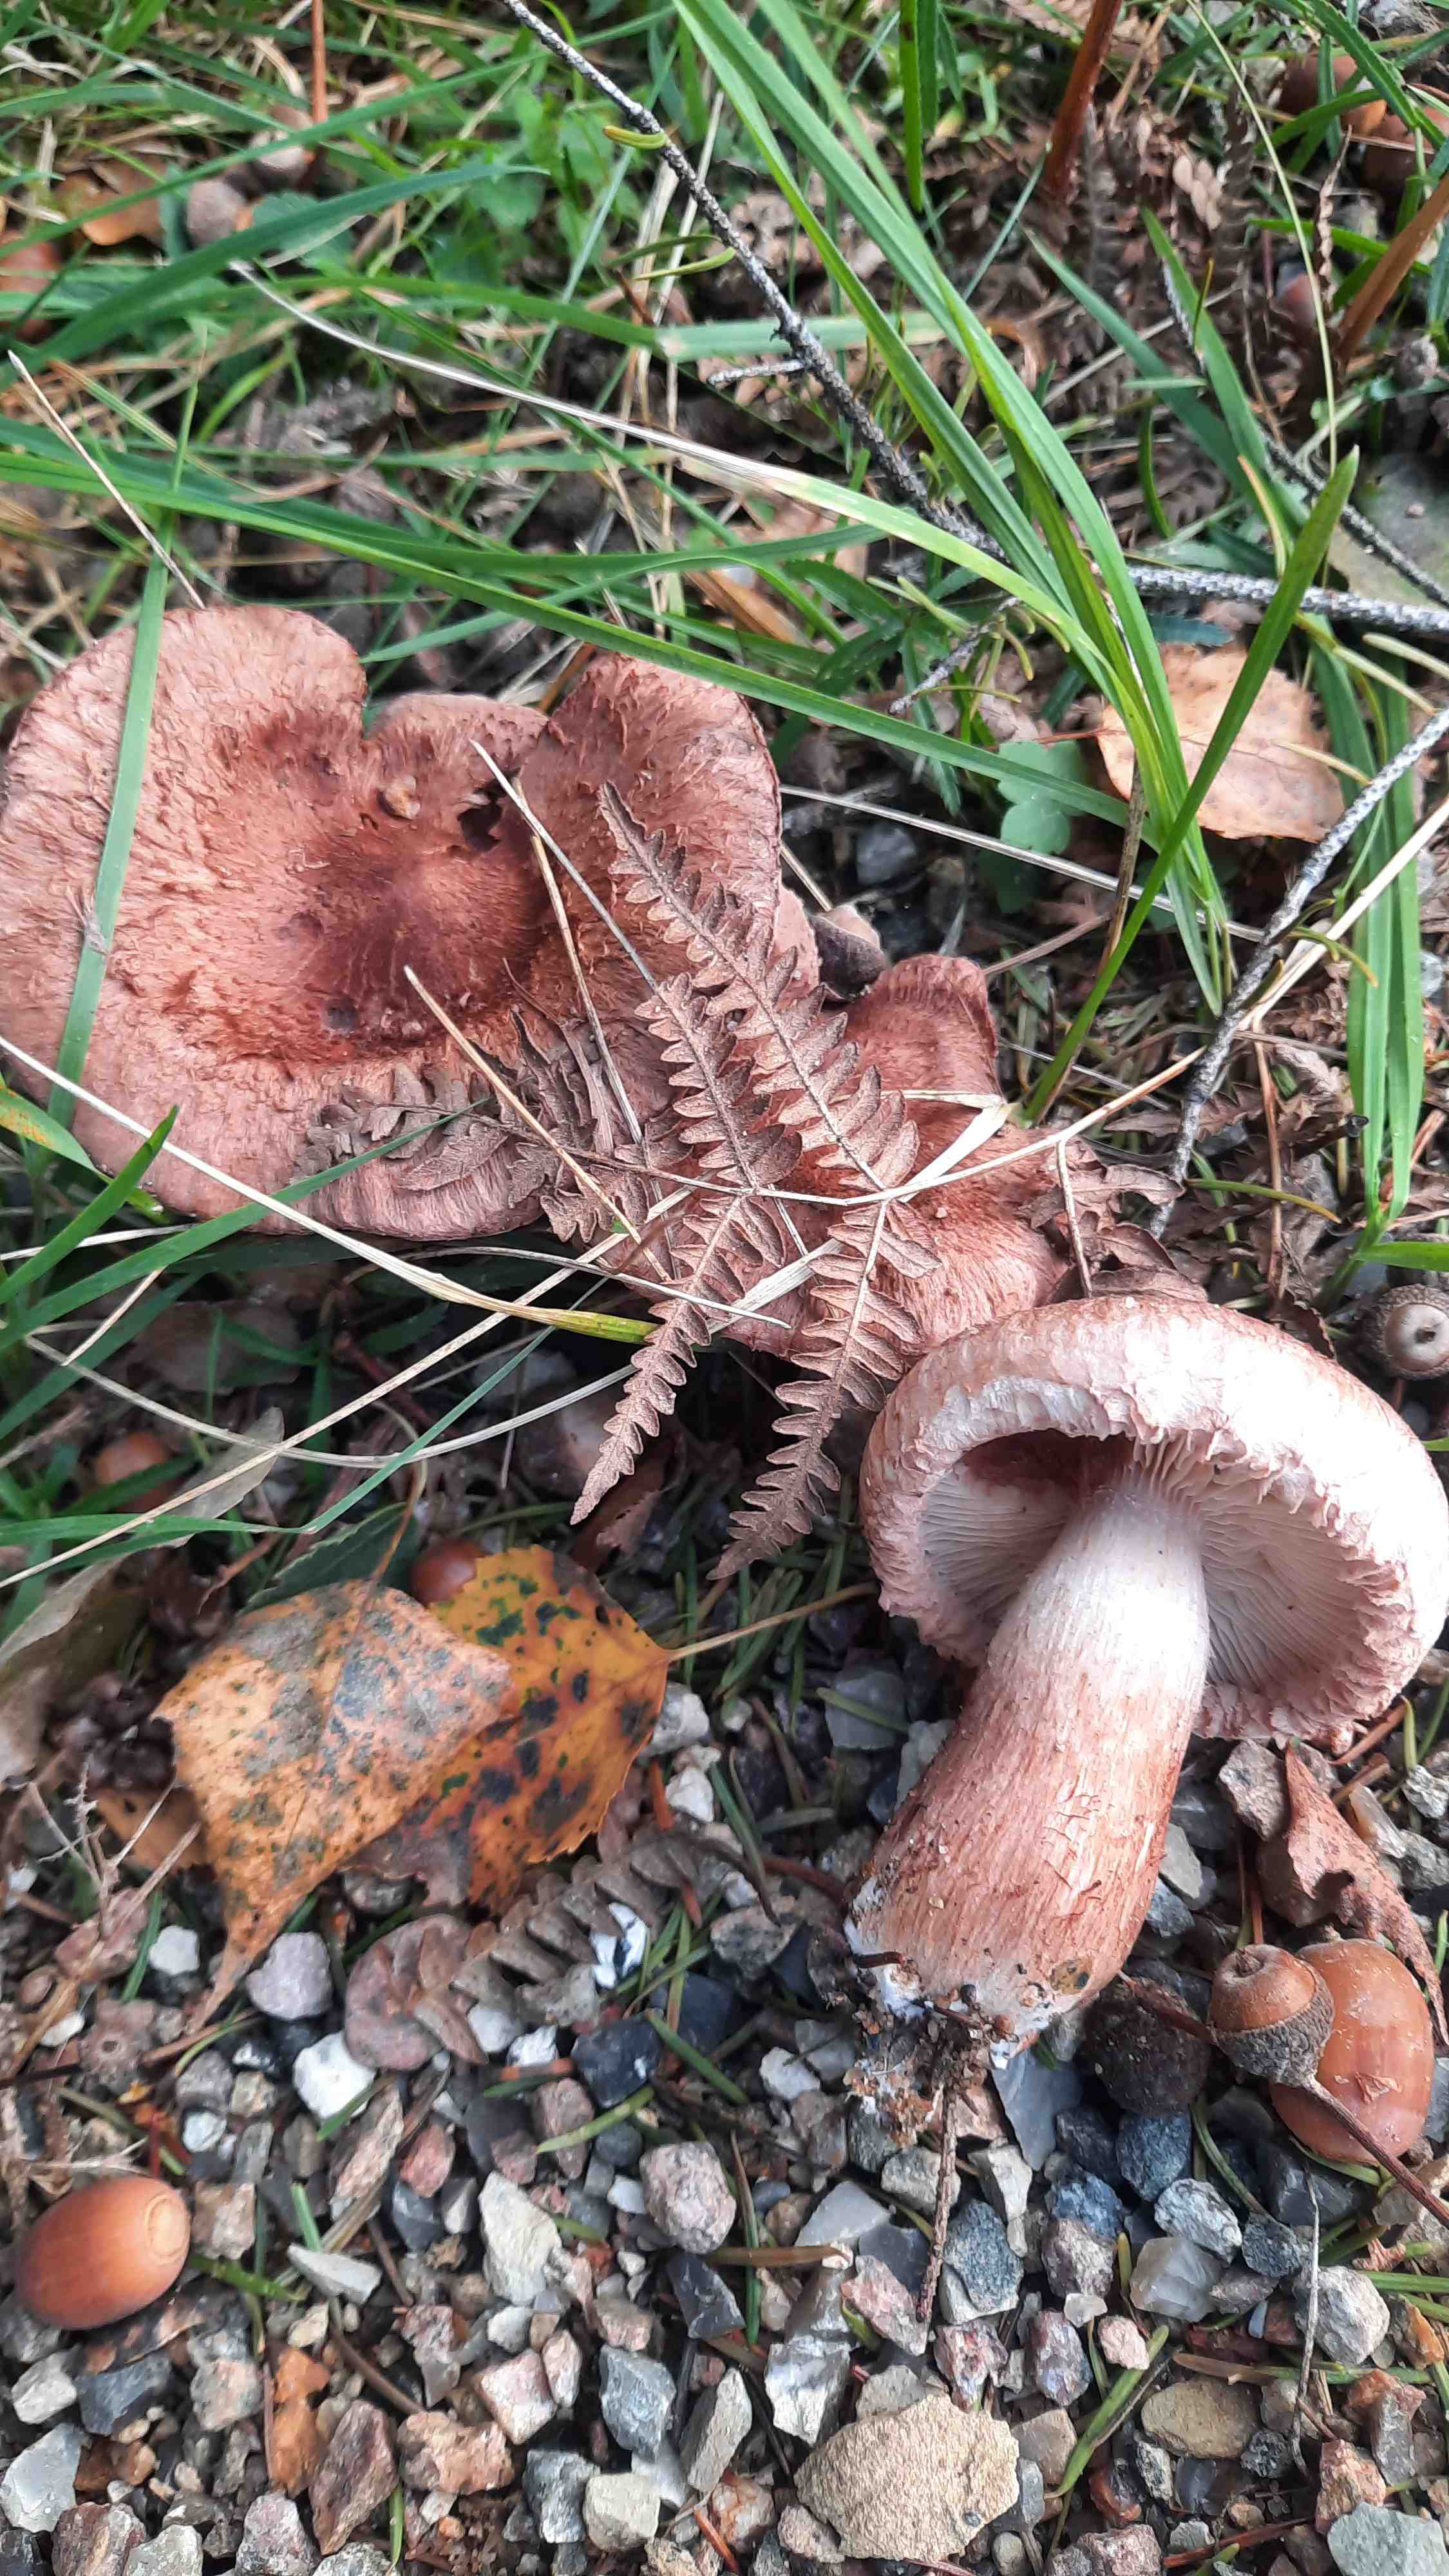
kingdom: Fungi
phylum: Basidiomycota
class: Agaricomycetes
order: Agaricales
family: Tricholomataceae
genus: Tricholoma
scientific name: Tricholoma vaccinum
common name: ko-ridderhat
